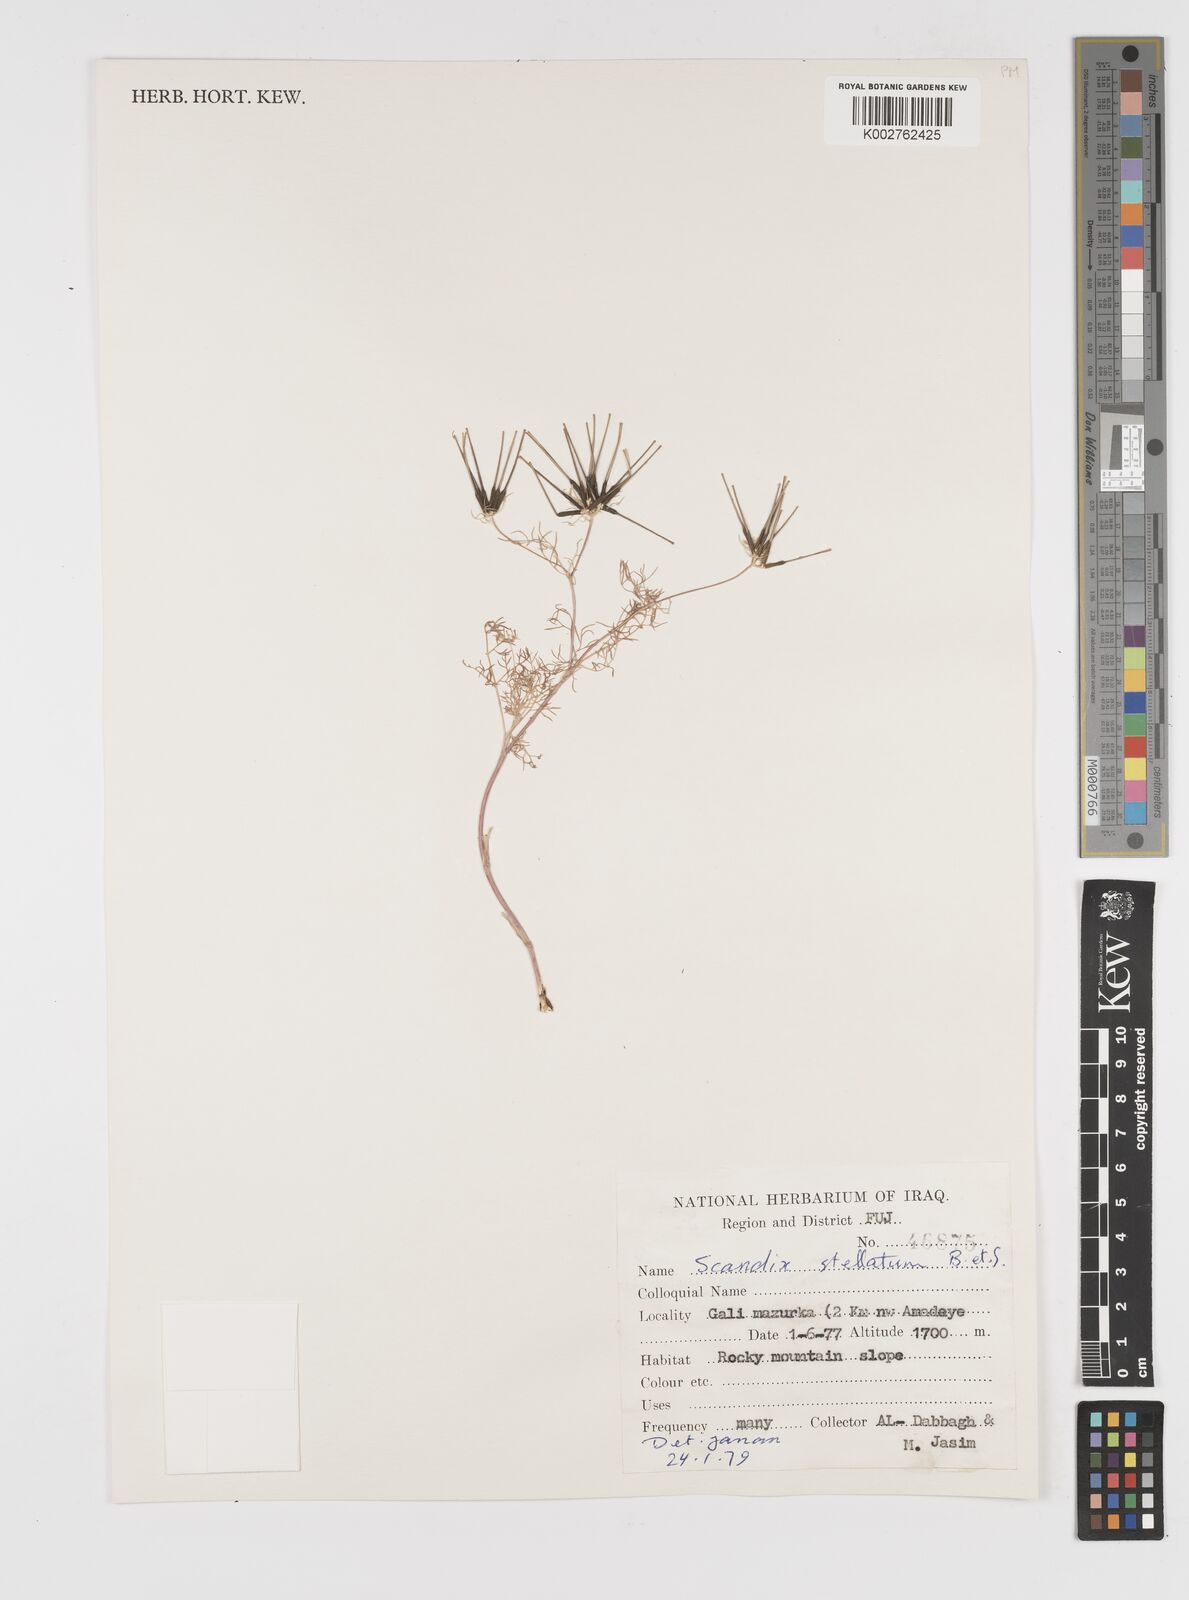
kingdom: Plantae
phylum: Tracheophyta
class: Magnoliopsida
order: Apiales
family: Apiaceae
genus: Scandix
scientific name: Scandix stellata
